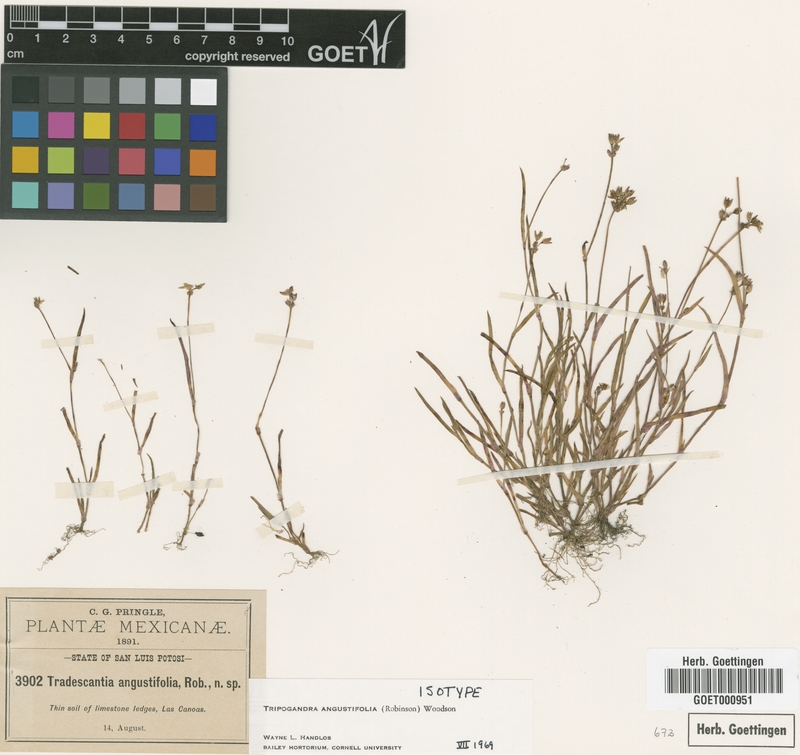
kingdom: Plantae
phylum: Tracheophyta
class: Liliopsida
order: Commelinales
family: Commelinaceae
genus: Callisia
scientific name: Callisia angustifolia
